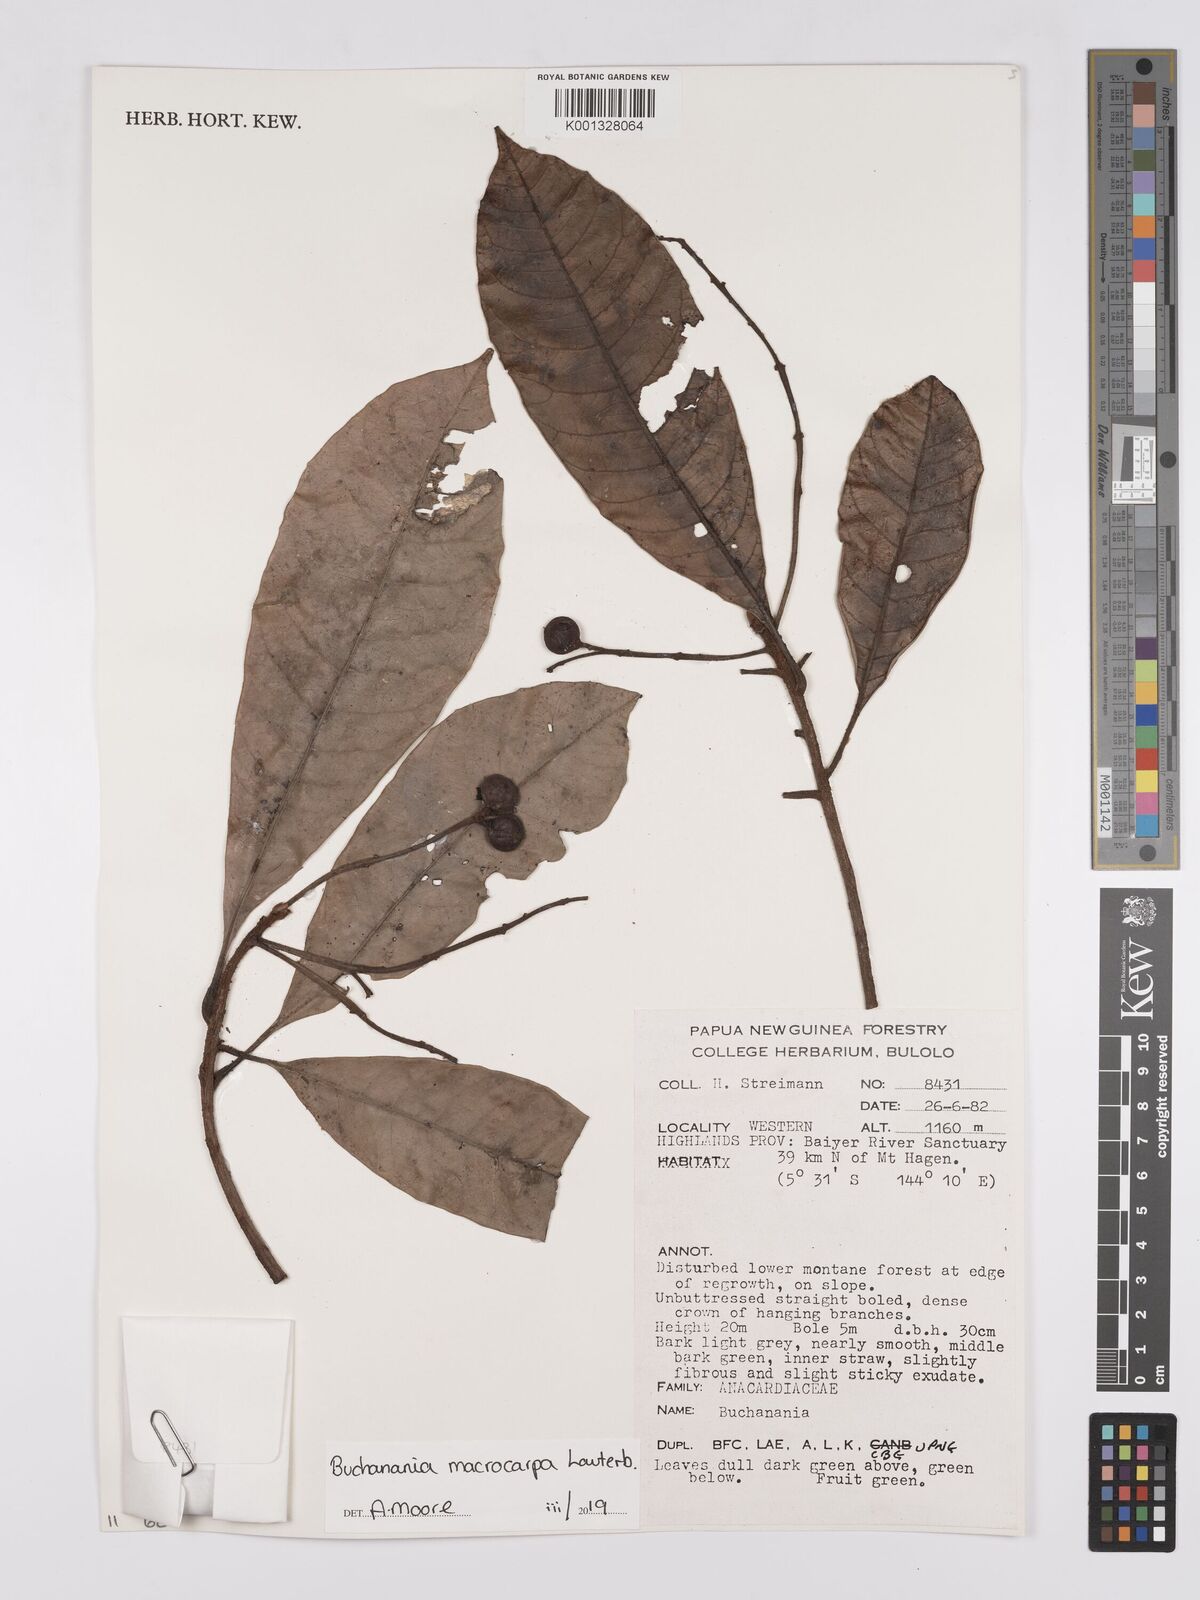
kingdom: Plantae
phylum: Tracheophyta
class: Magnoliopsida
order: Sapindales
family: Anacardiaceae
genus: Buchanania
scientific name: Buchanania macrocarpa
